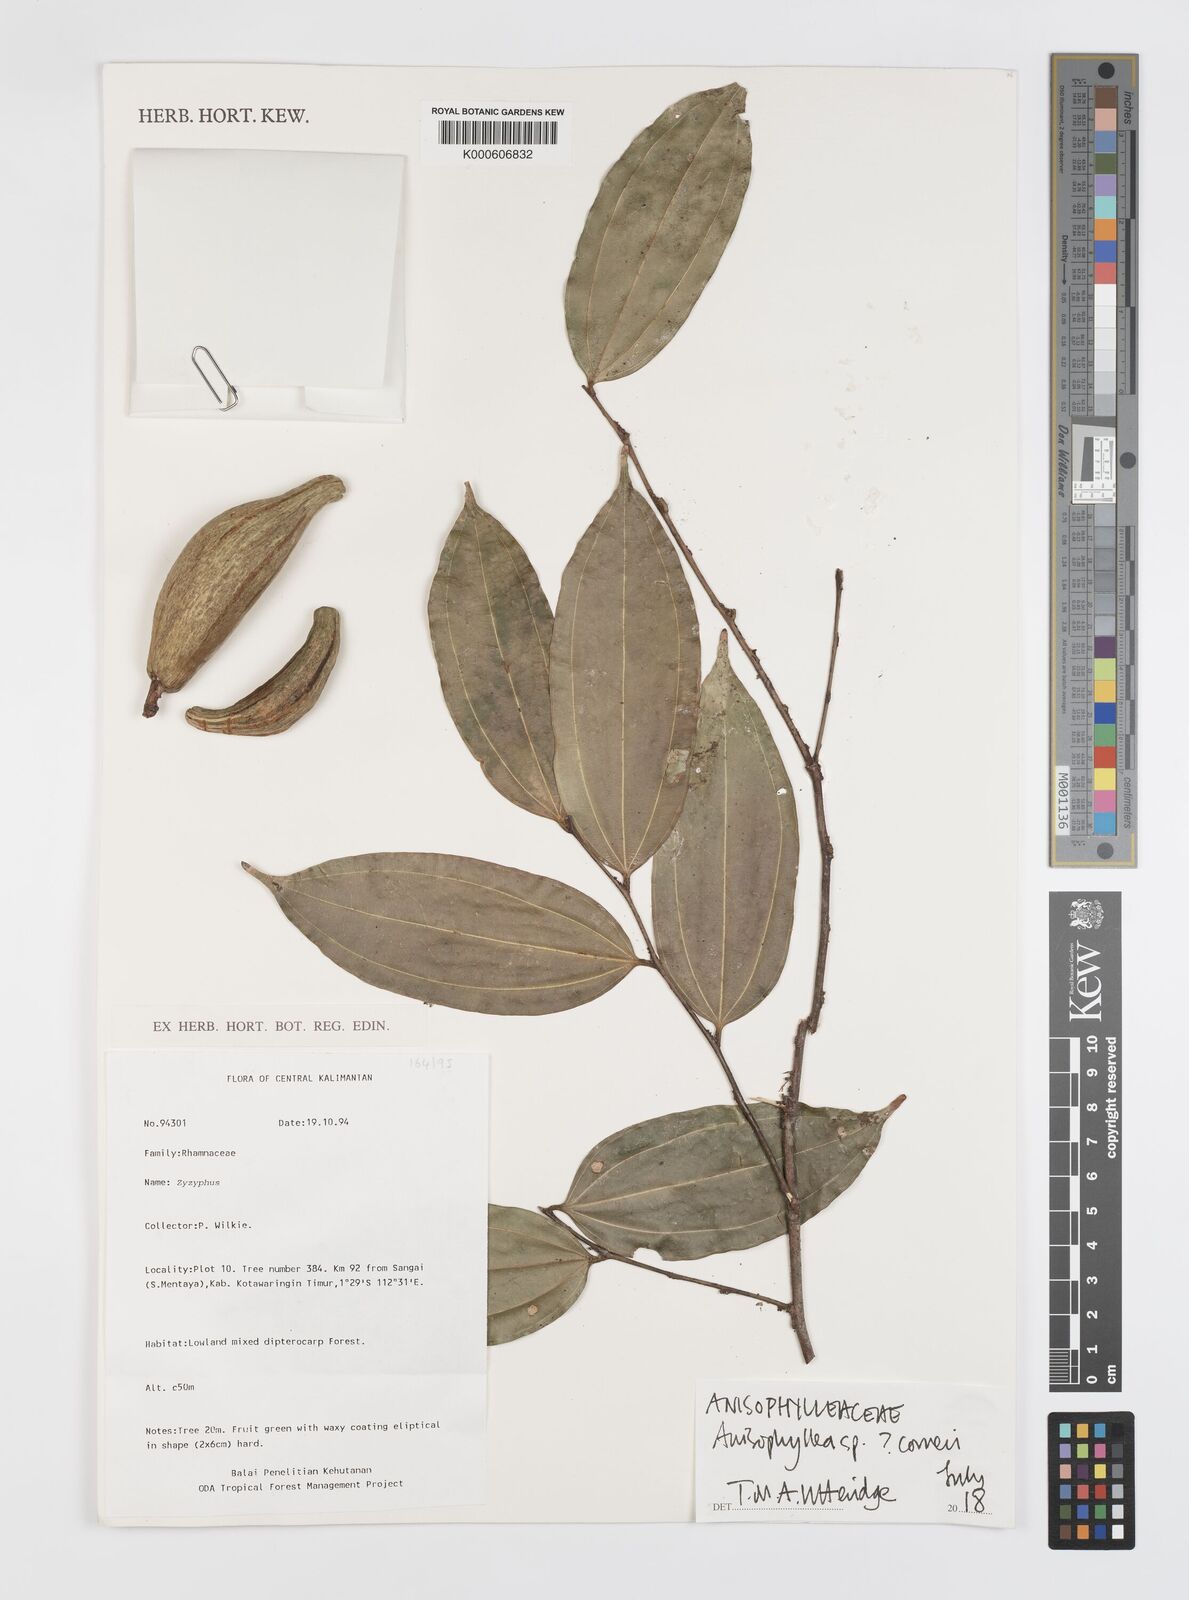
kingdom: Plantae
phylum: Tracheophyta
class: Magnoliopsida
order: Cucurbitales
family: Anisophylleaceae
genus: Anisophyllea
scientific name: Anisophyllea
